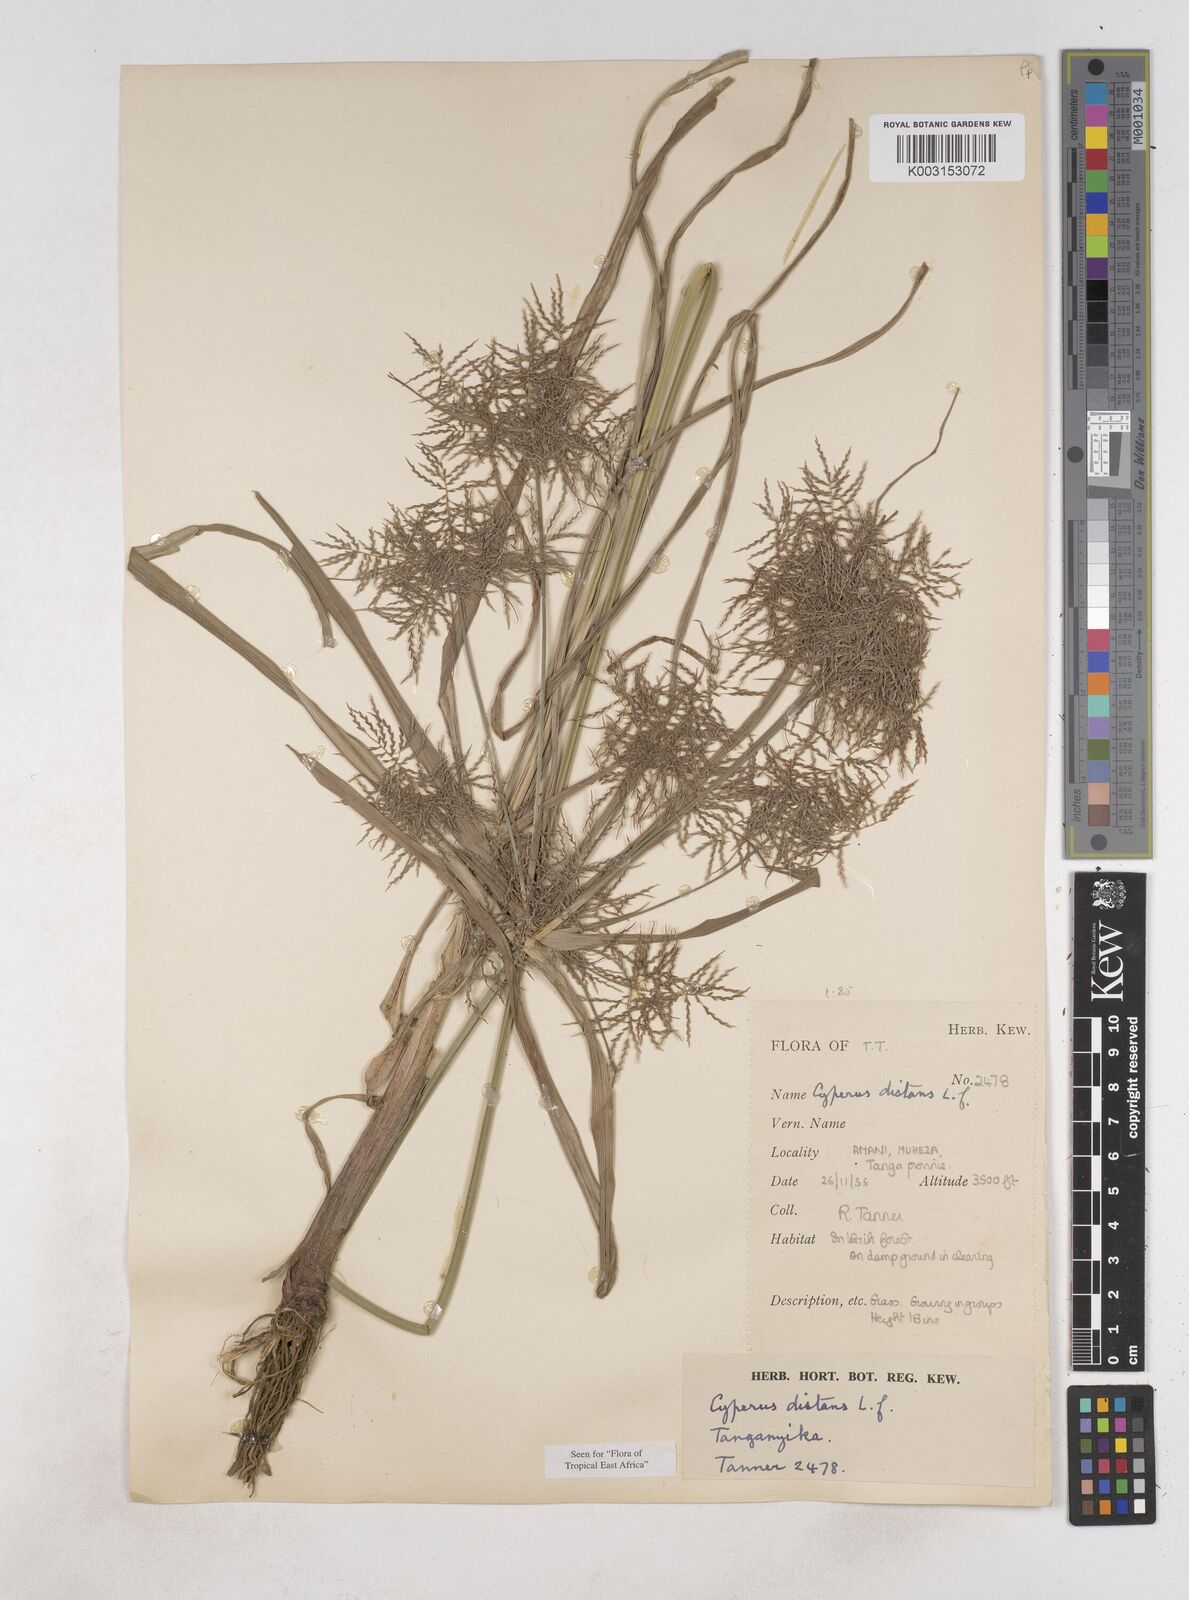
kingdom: Plantae
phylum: Tracheophyta
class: Liliopsida
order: Poales
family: Cyperaceae
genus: Cyperus
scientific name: Cyperus distans
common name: Slender cyperus
